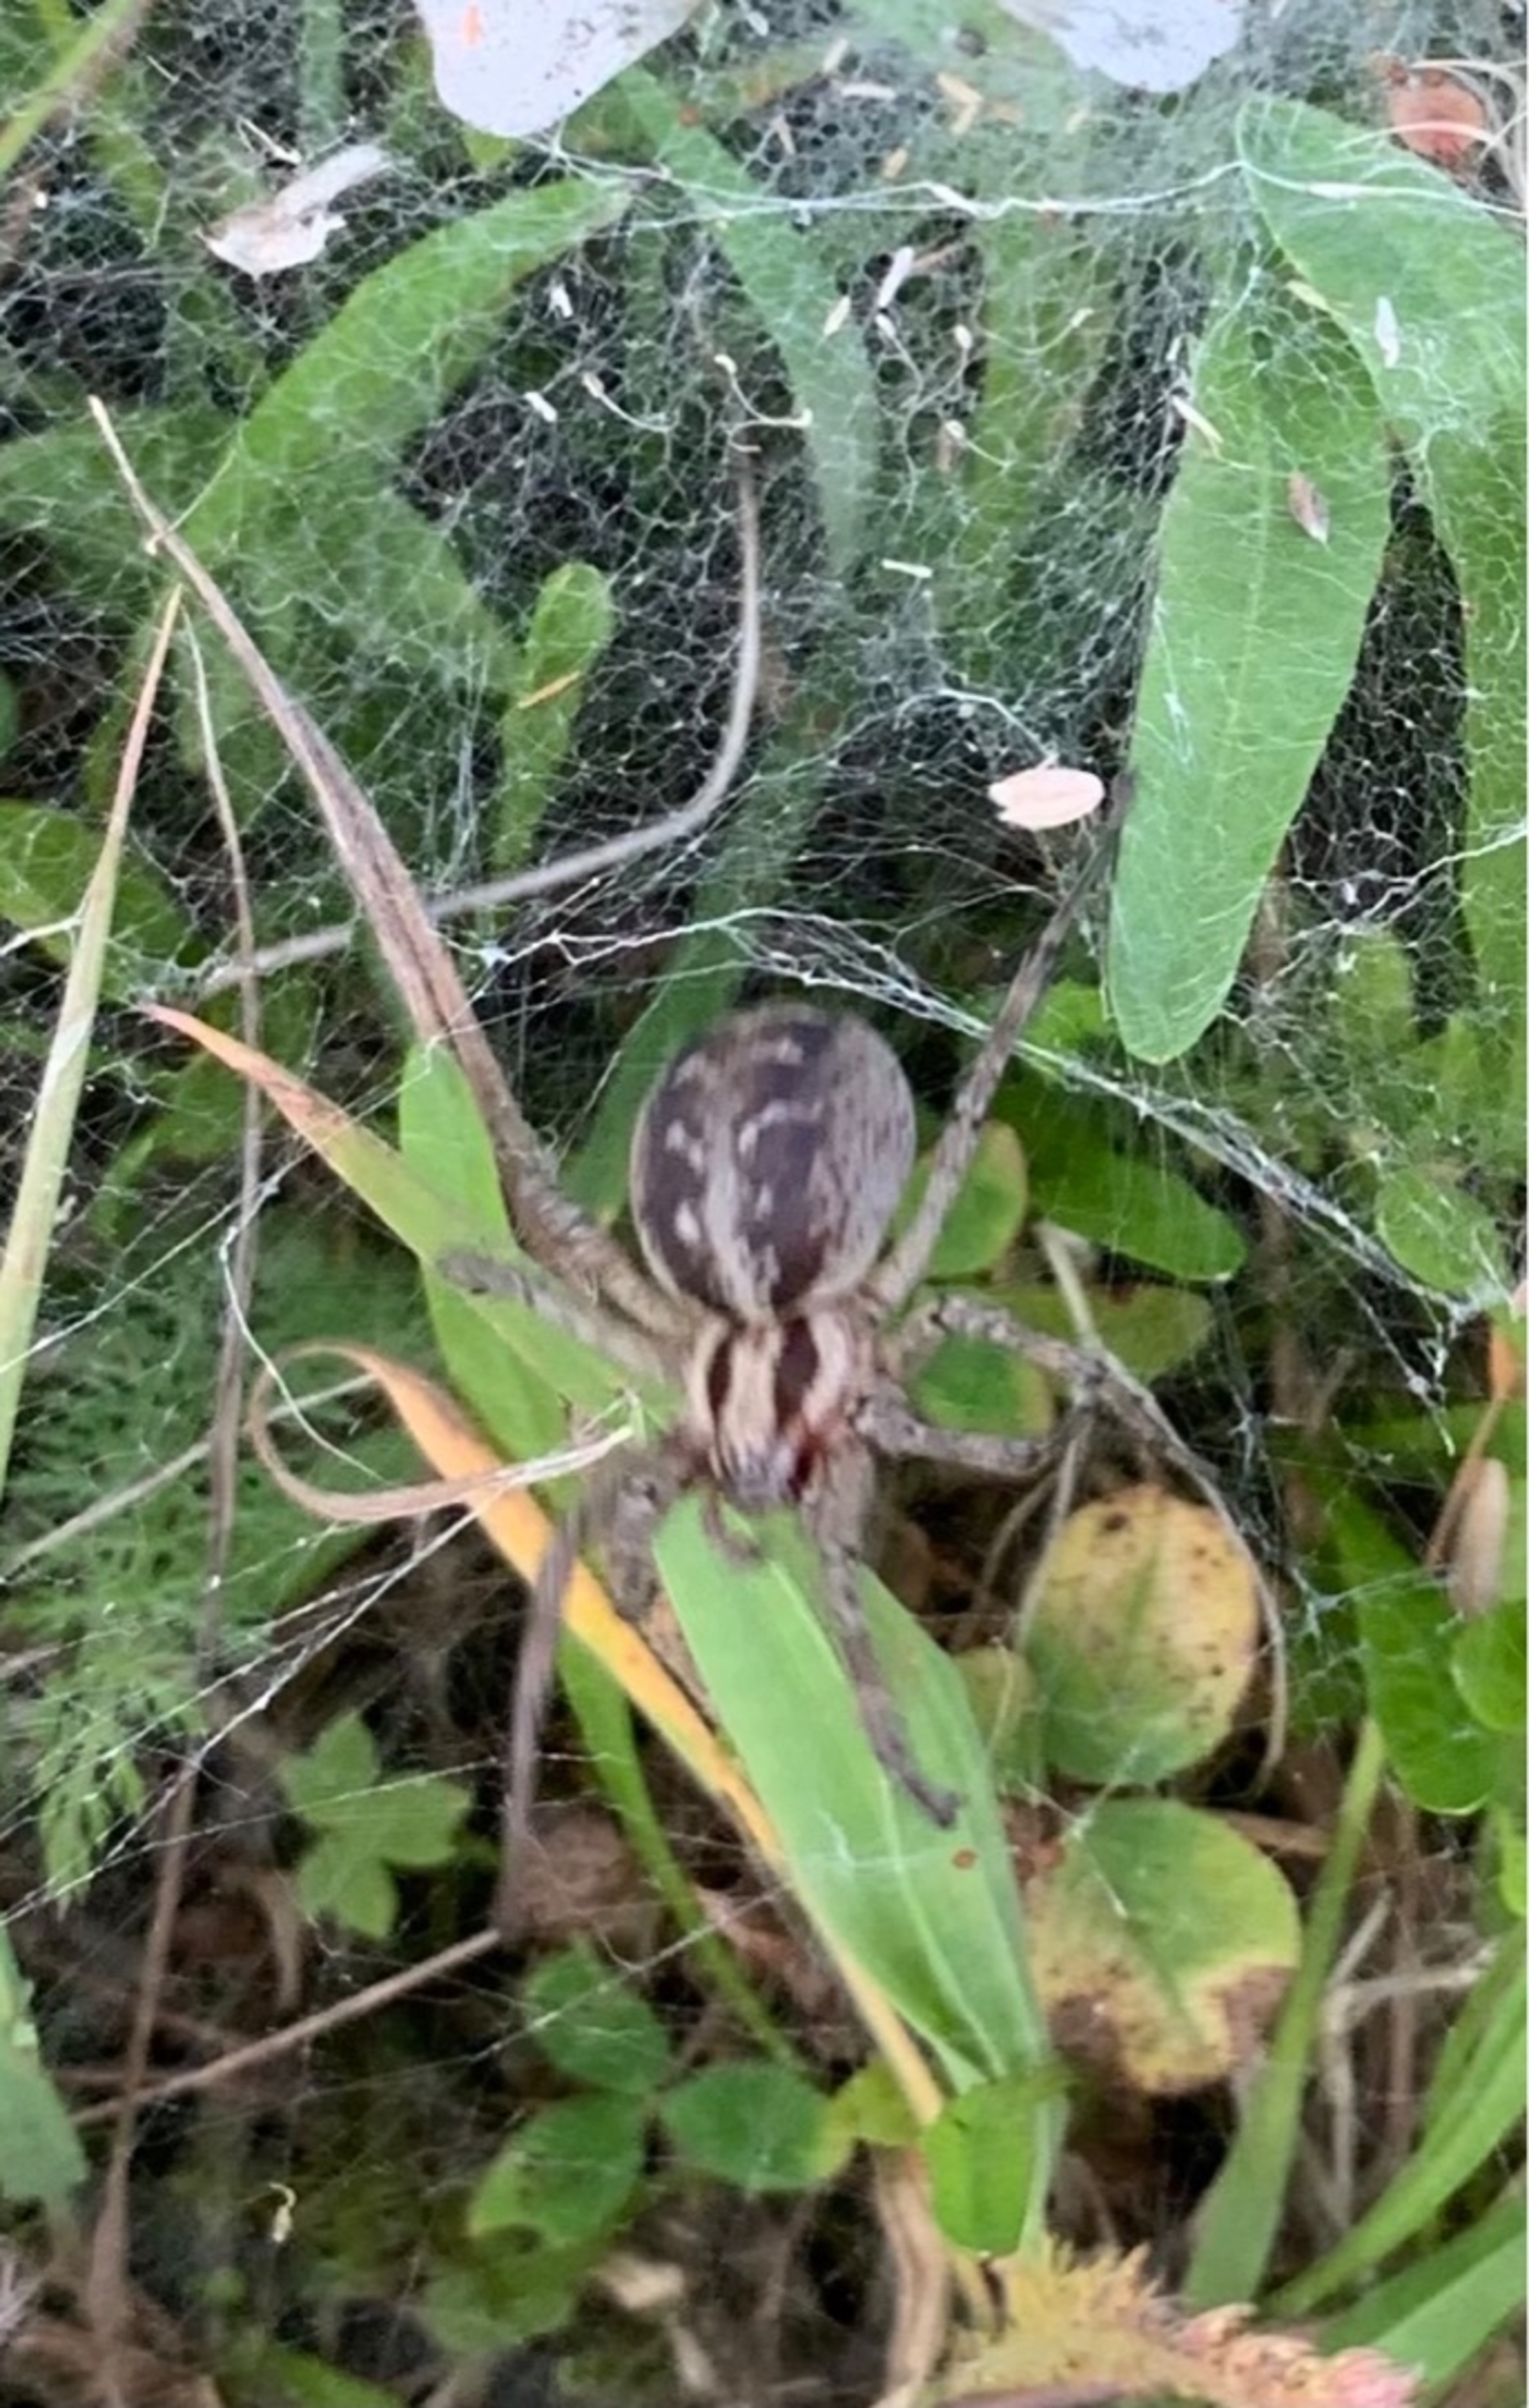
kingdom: Animalia
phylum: Arthropoda
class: Arachnida
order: Araneae
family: Agelenidae
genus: Agelena
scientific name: Agelena labyrinthica
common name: Labyrintedderkop
